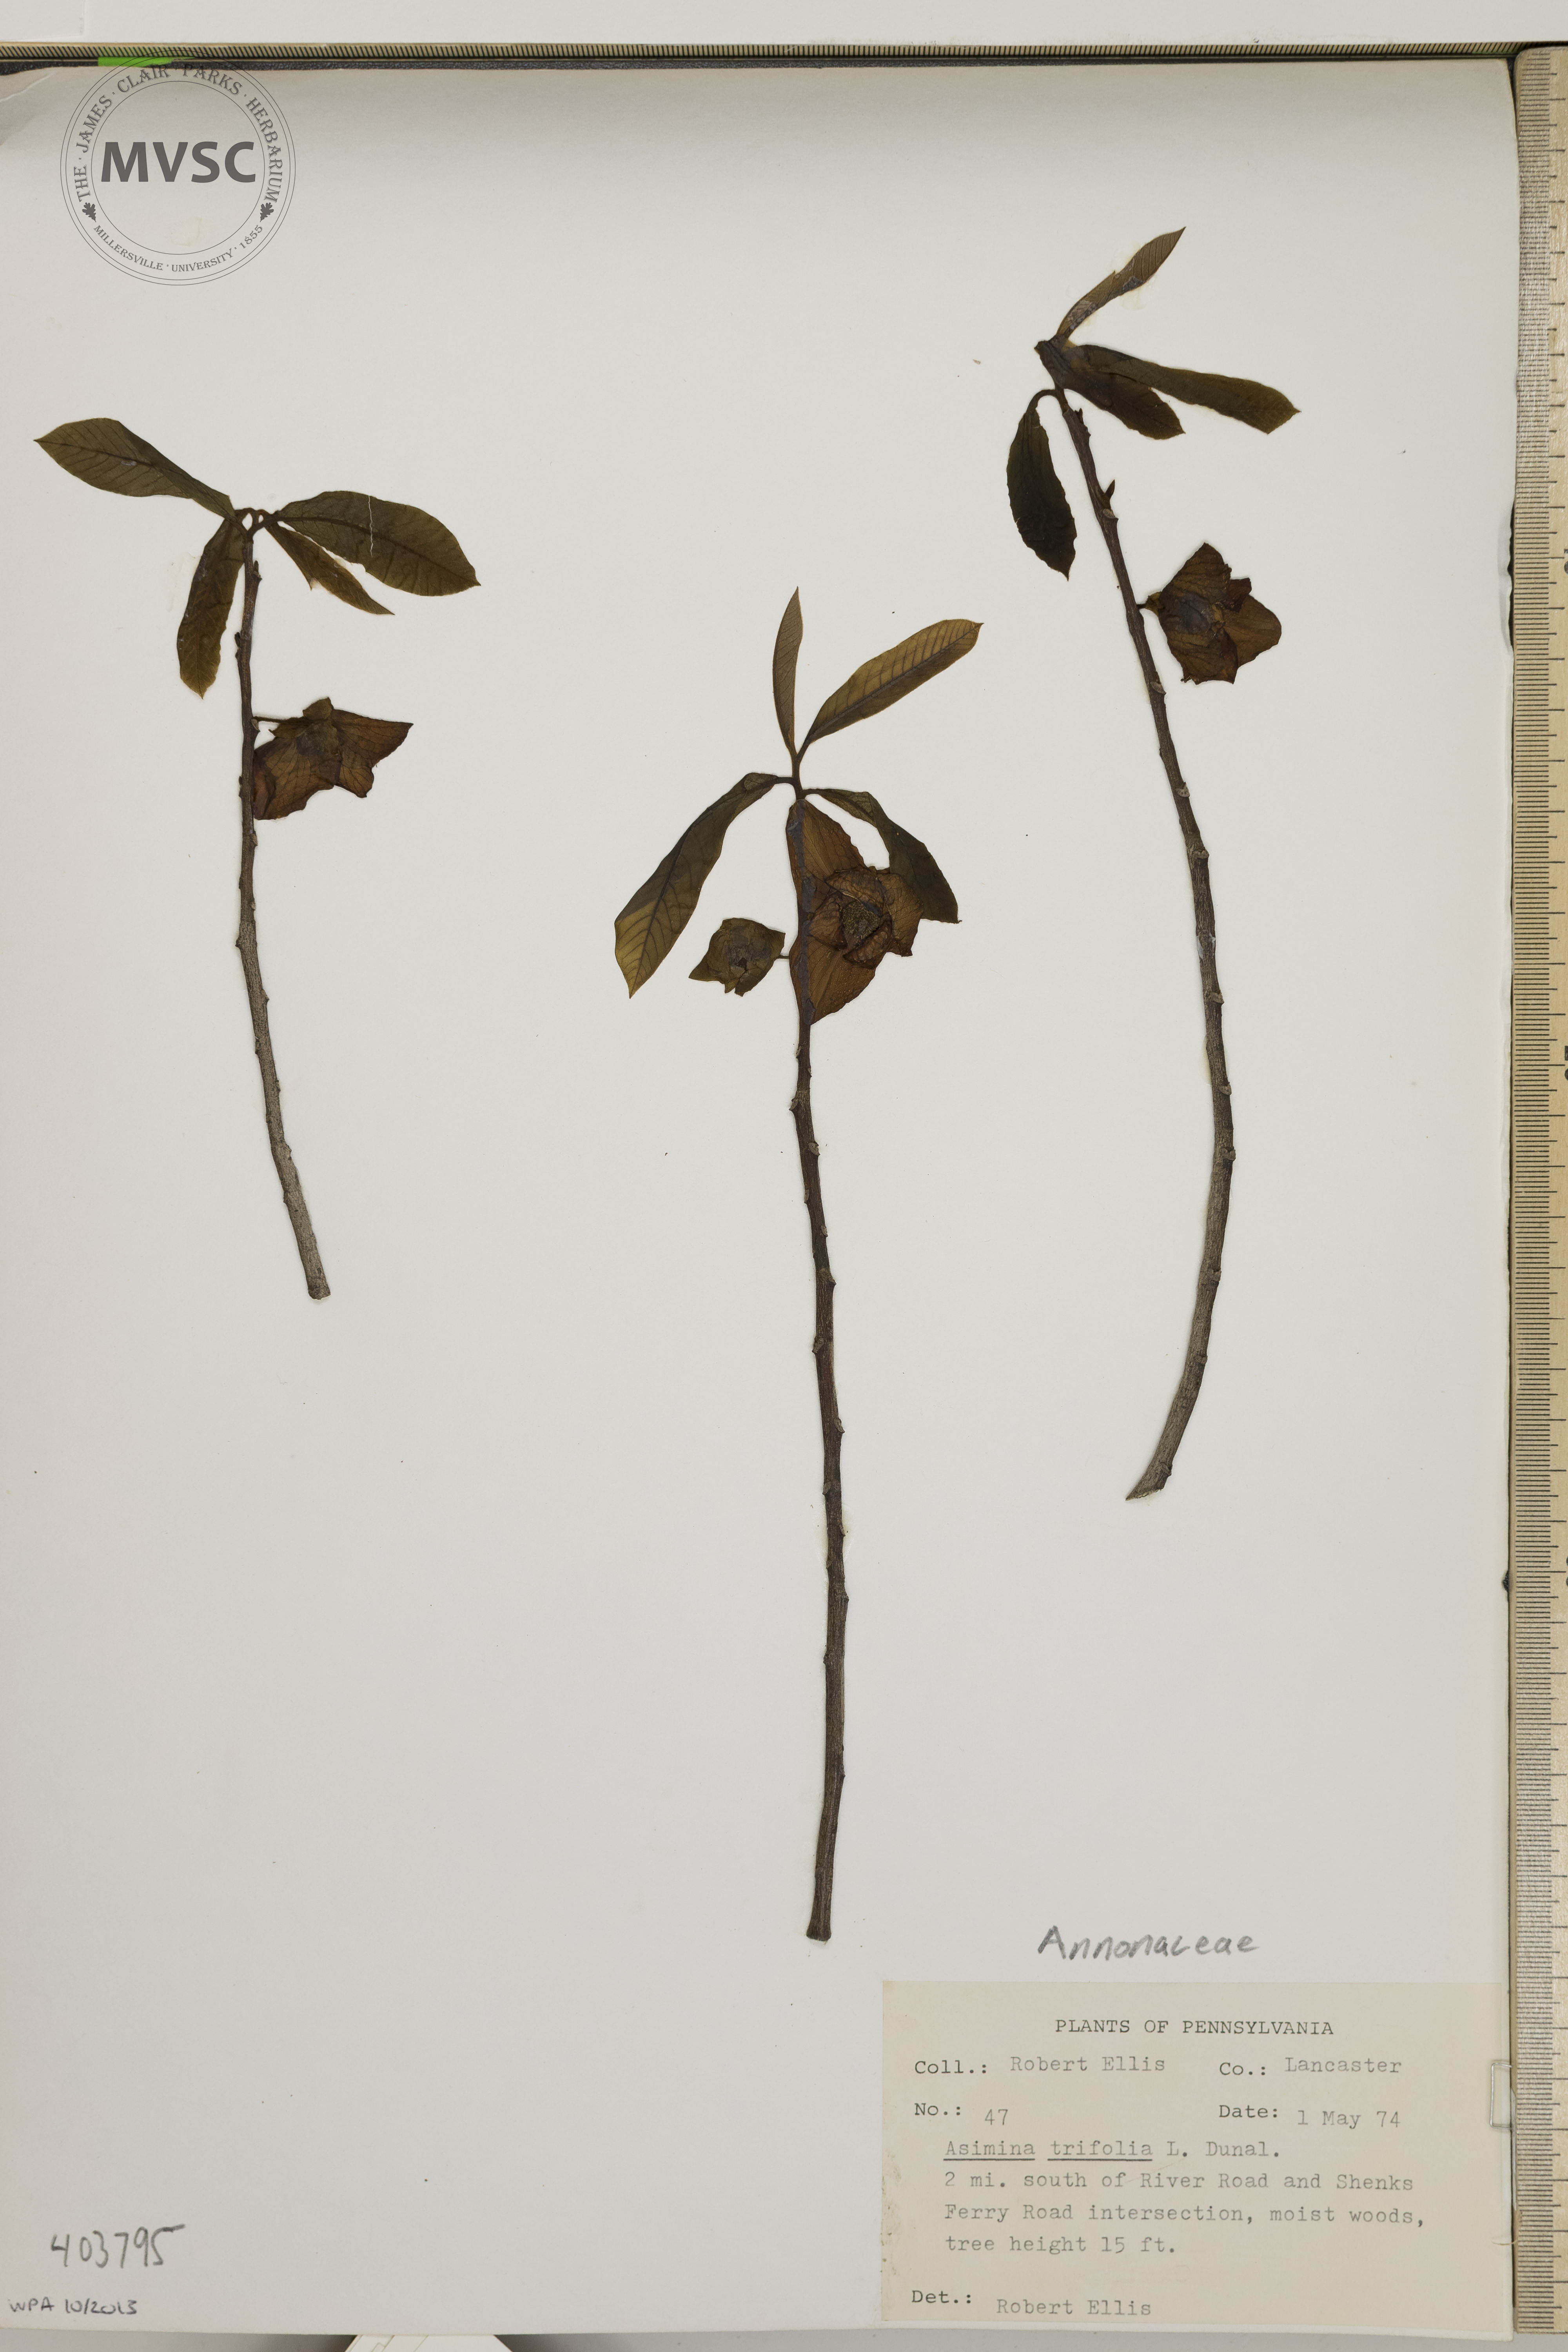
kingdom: Plantae
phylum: Tracheophyta
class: Magnoliopsida
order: Magnoliales
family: Annonaceae
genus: Asimina
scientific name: Asimina triloba
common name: Dog-banana
